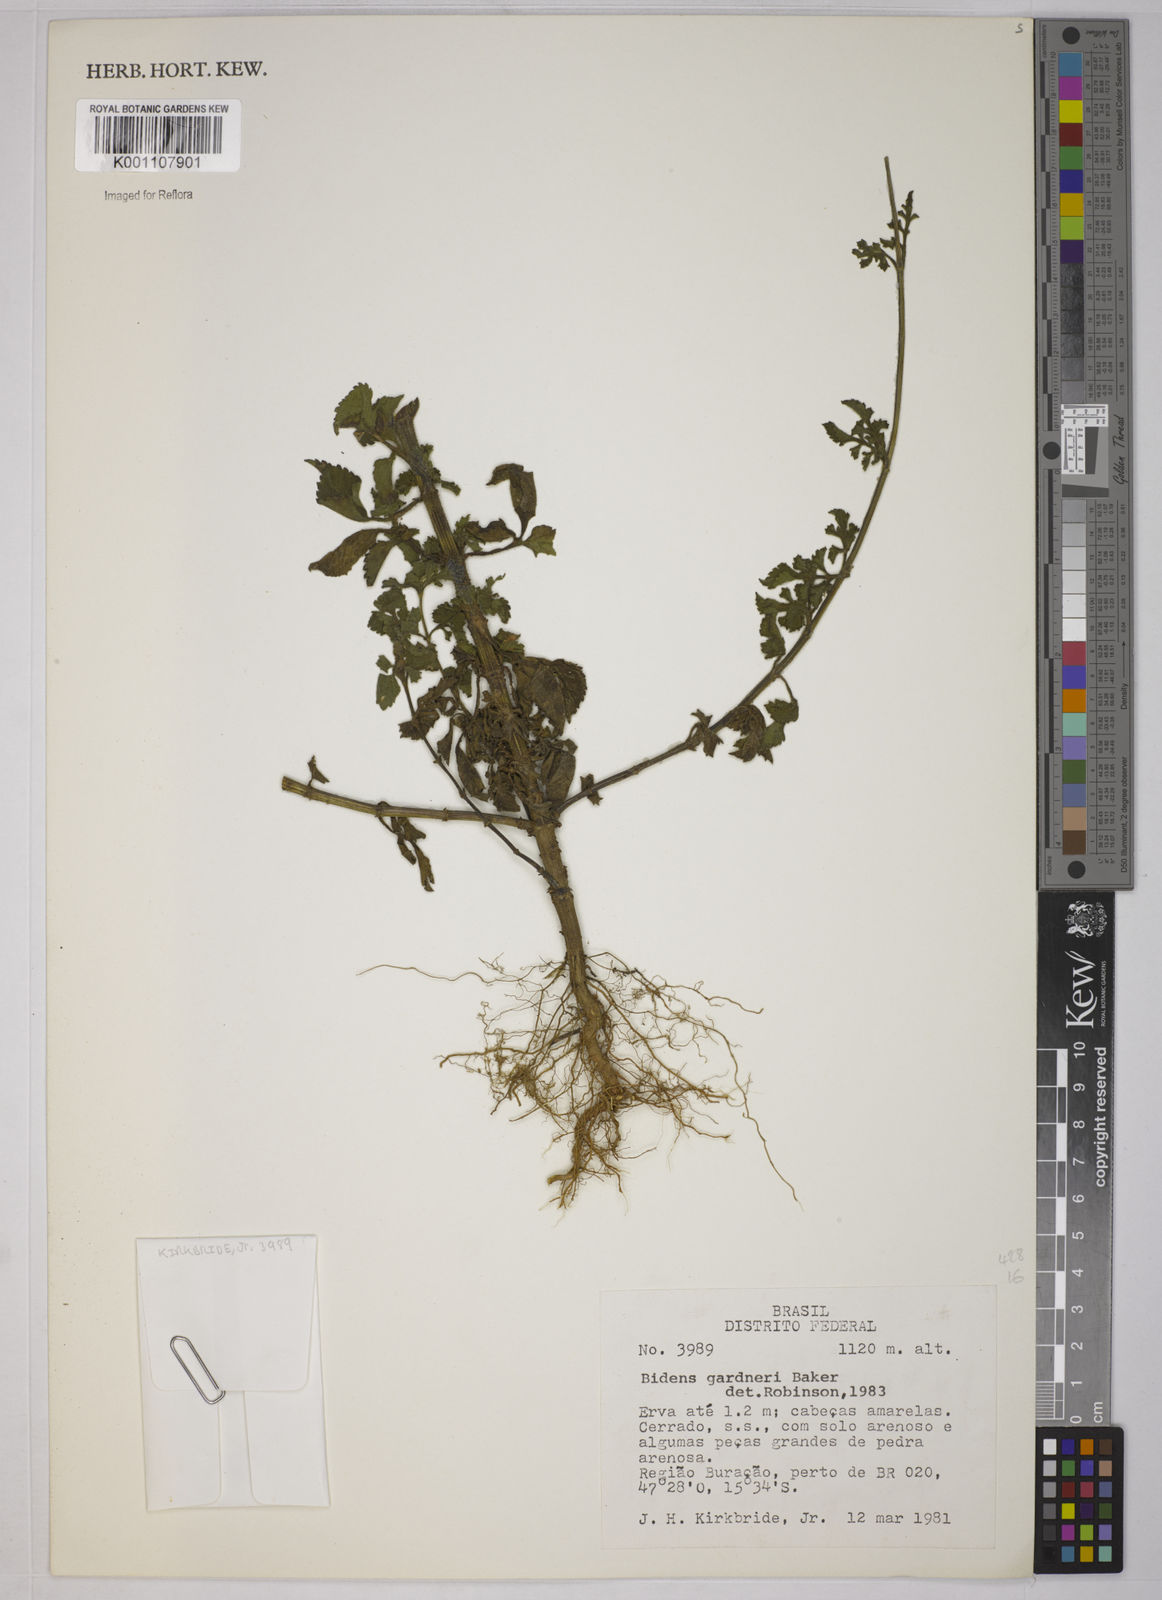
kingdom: Plantae
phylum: Tracheophyta
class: Magnoliopsida
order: Asterales
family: Asteraceae
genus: Bidens
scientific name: Bidens gardneri
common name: Ridge beggartick
